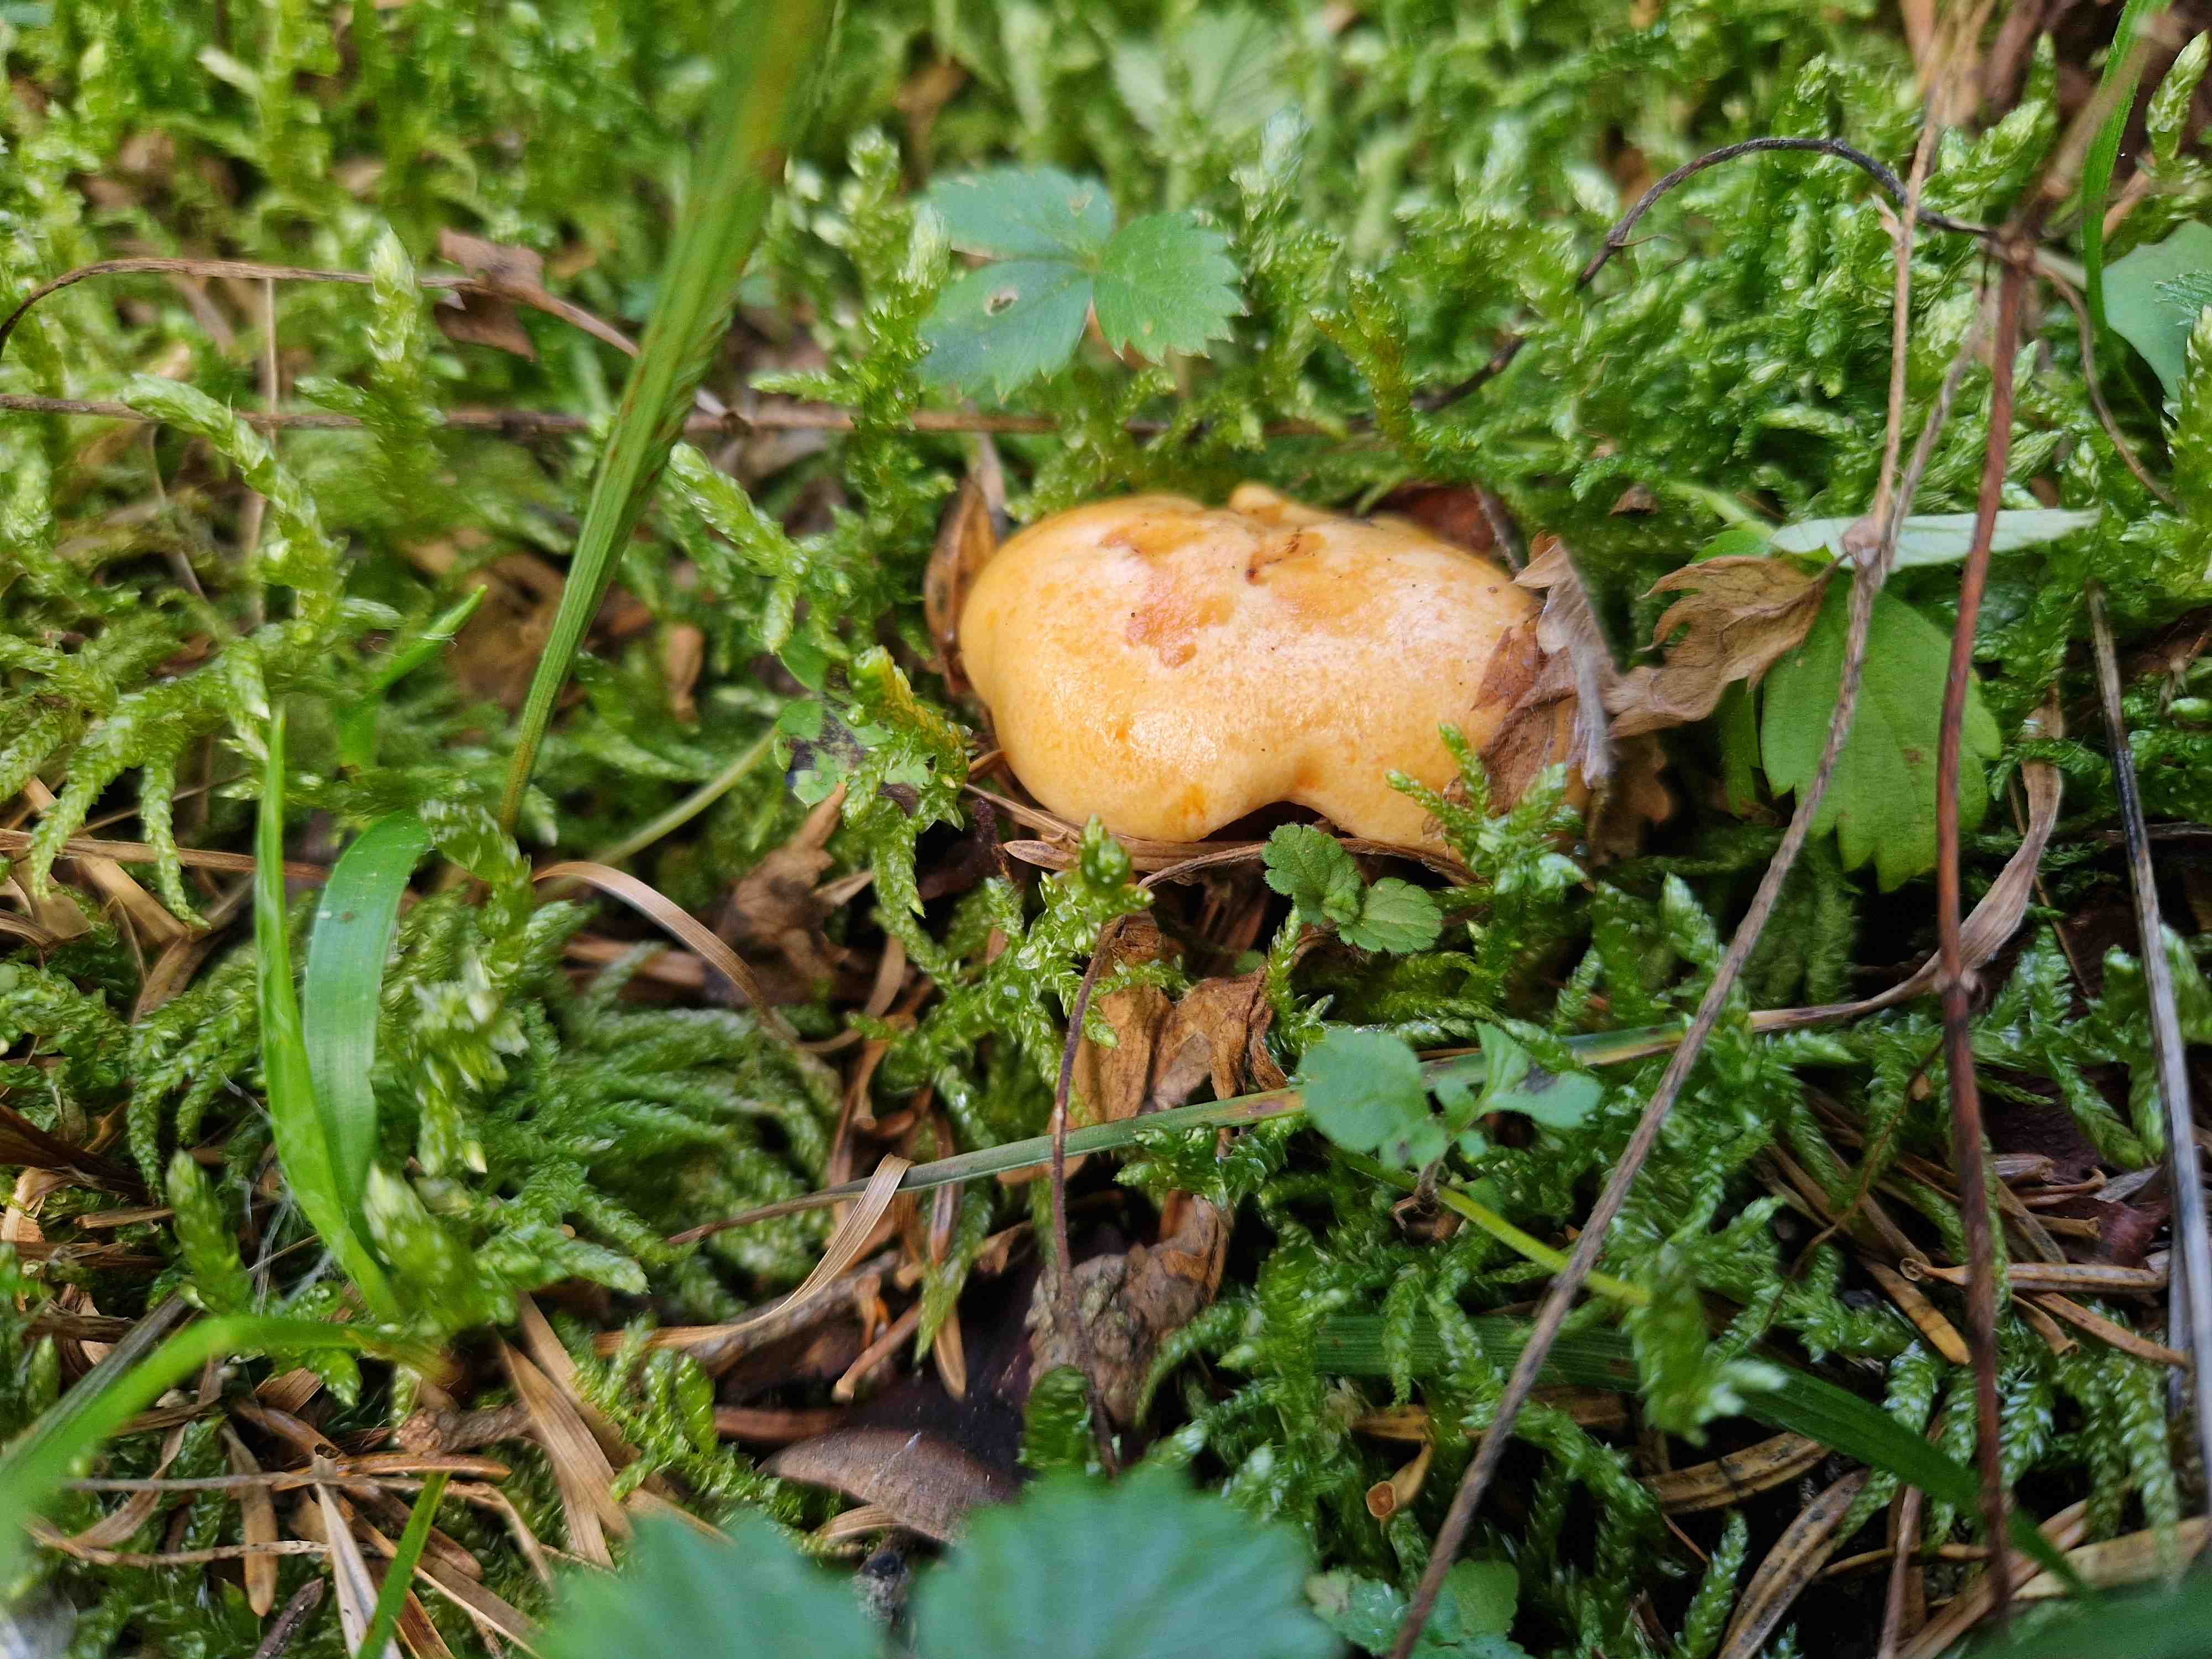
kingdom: Fungi
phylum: Basidiomycota
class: Agaricomycetes
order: Russulales
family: Russulaceae
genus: Lactarius
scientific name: Lactarius salmonicolor
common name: laksefarvet mælkehat
